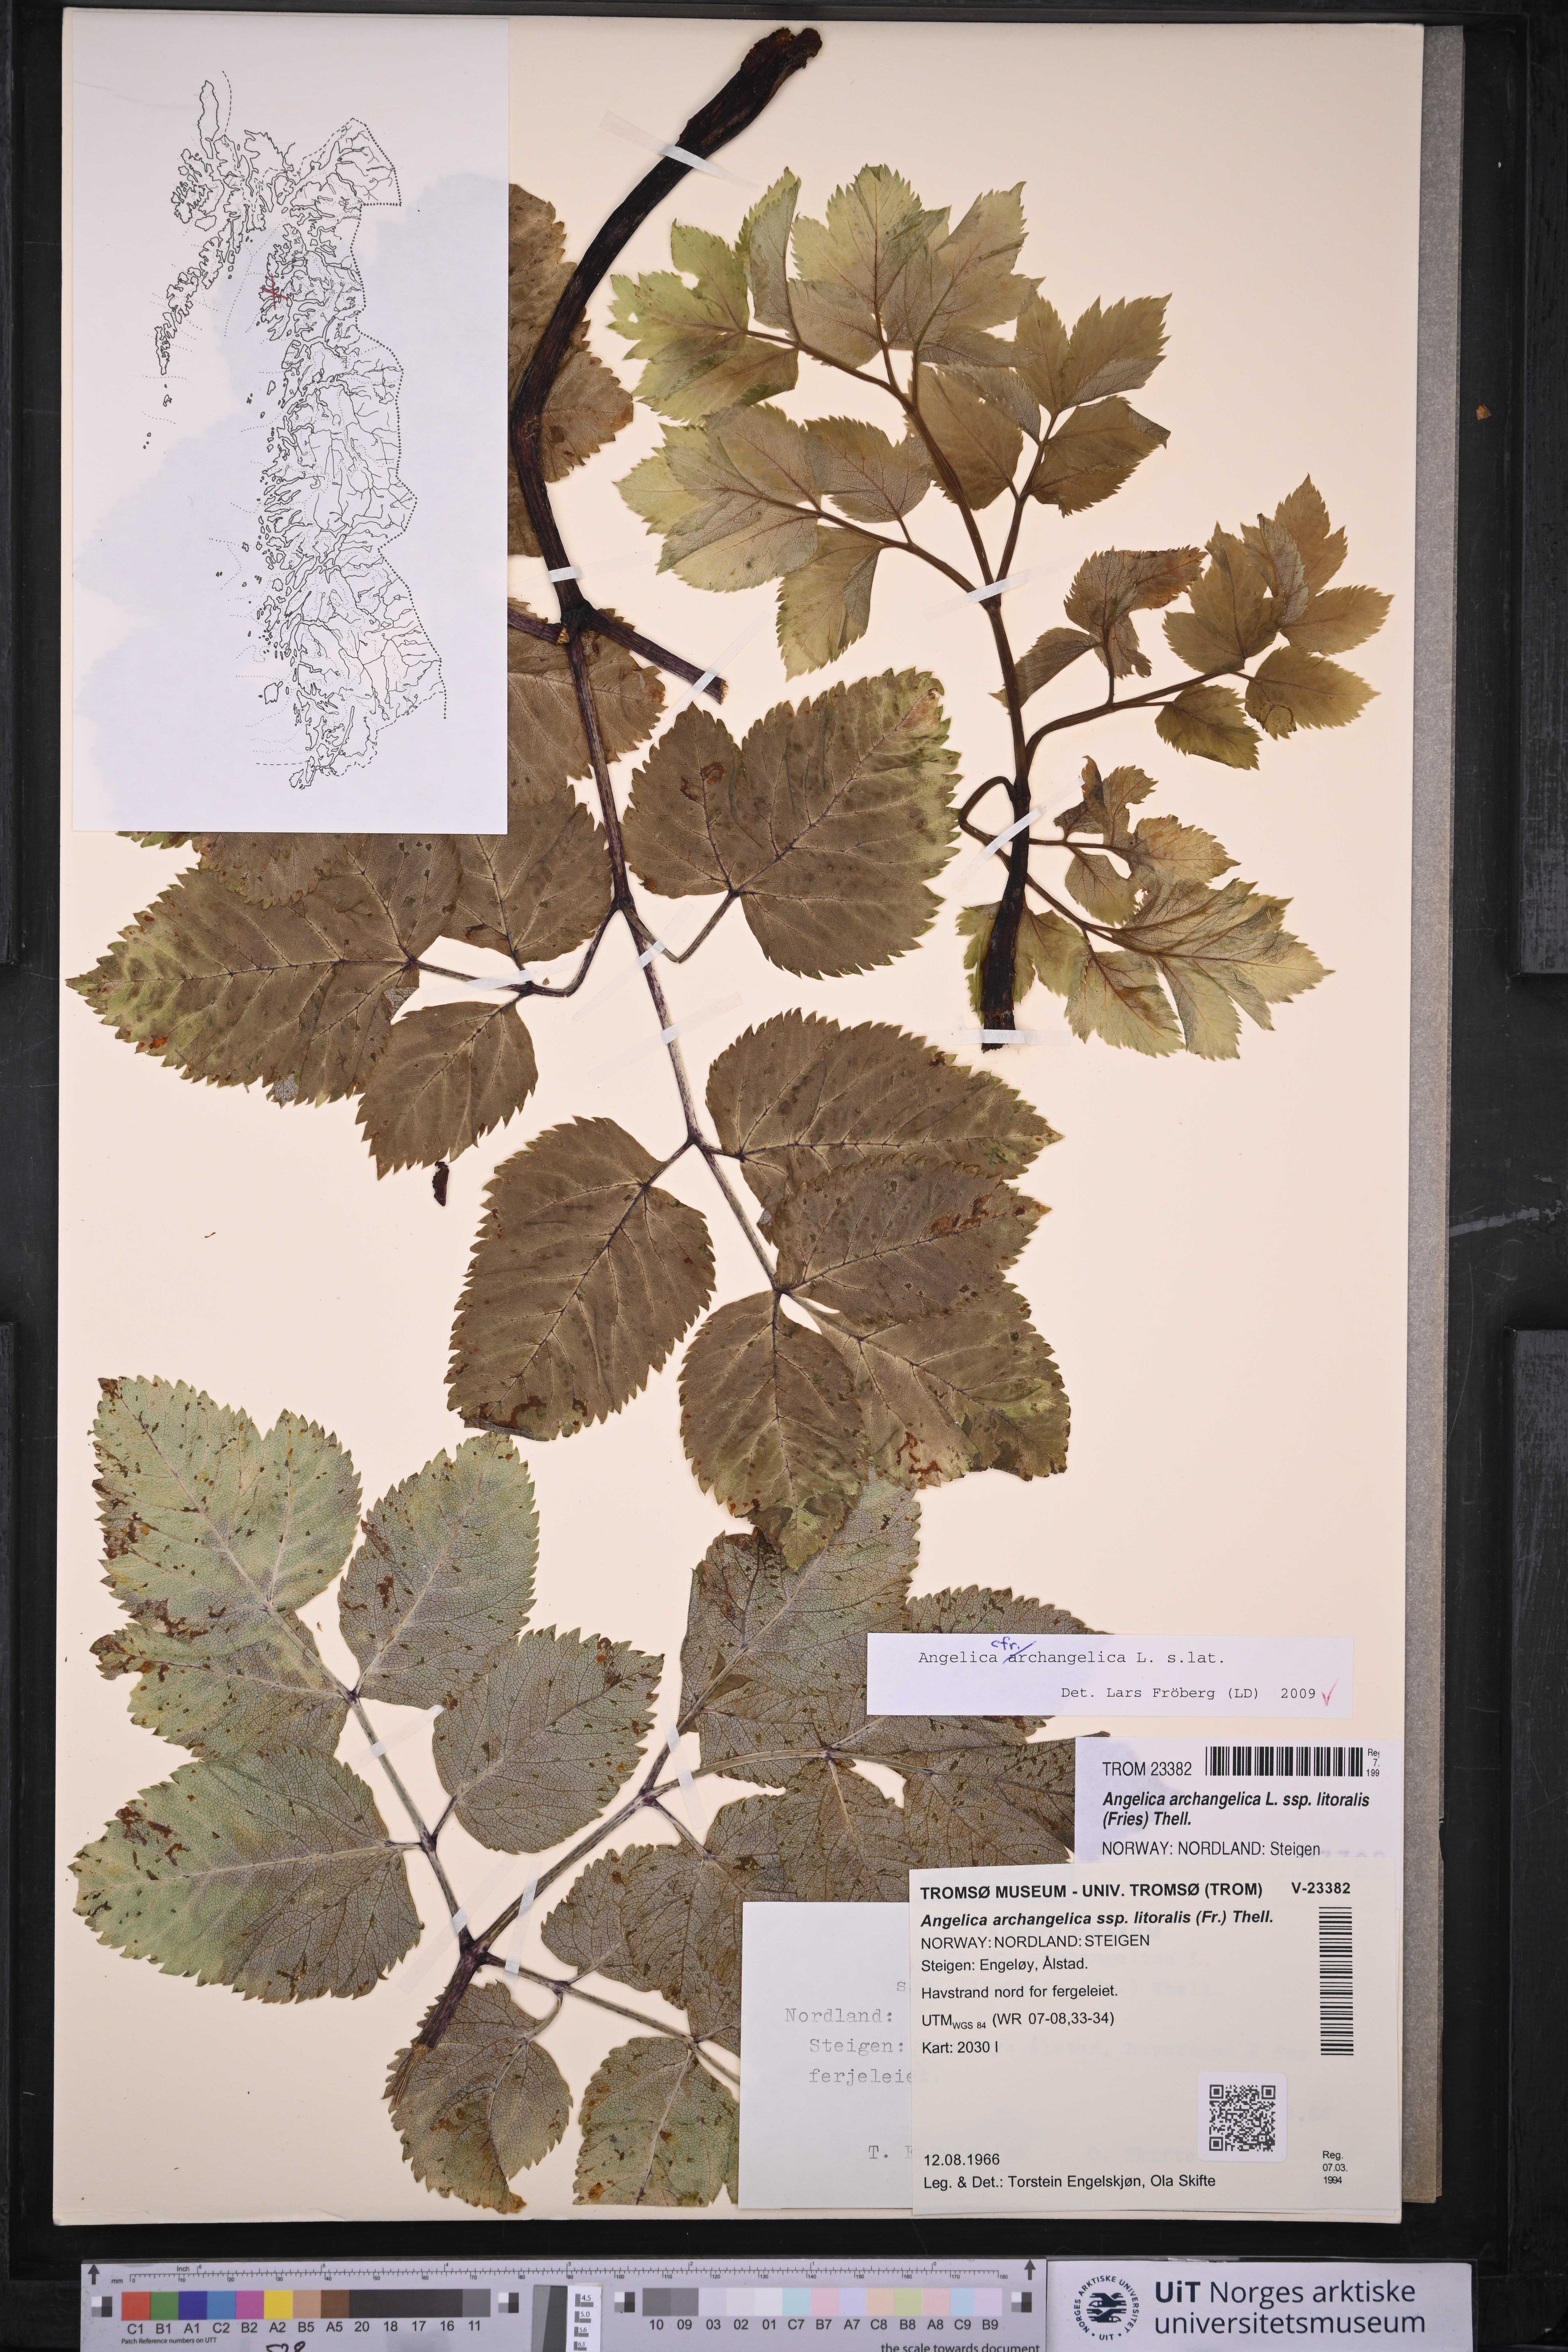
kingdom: Plantae
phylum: Tracheophyta
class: Magnoliopsida
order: Apiales
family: Apiaceae
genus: Angelica
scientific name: Angelica archangelica
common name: Garden angelica
